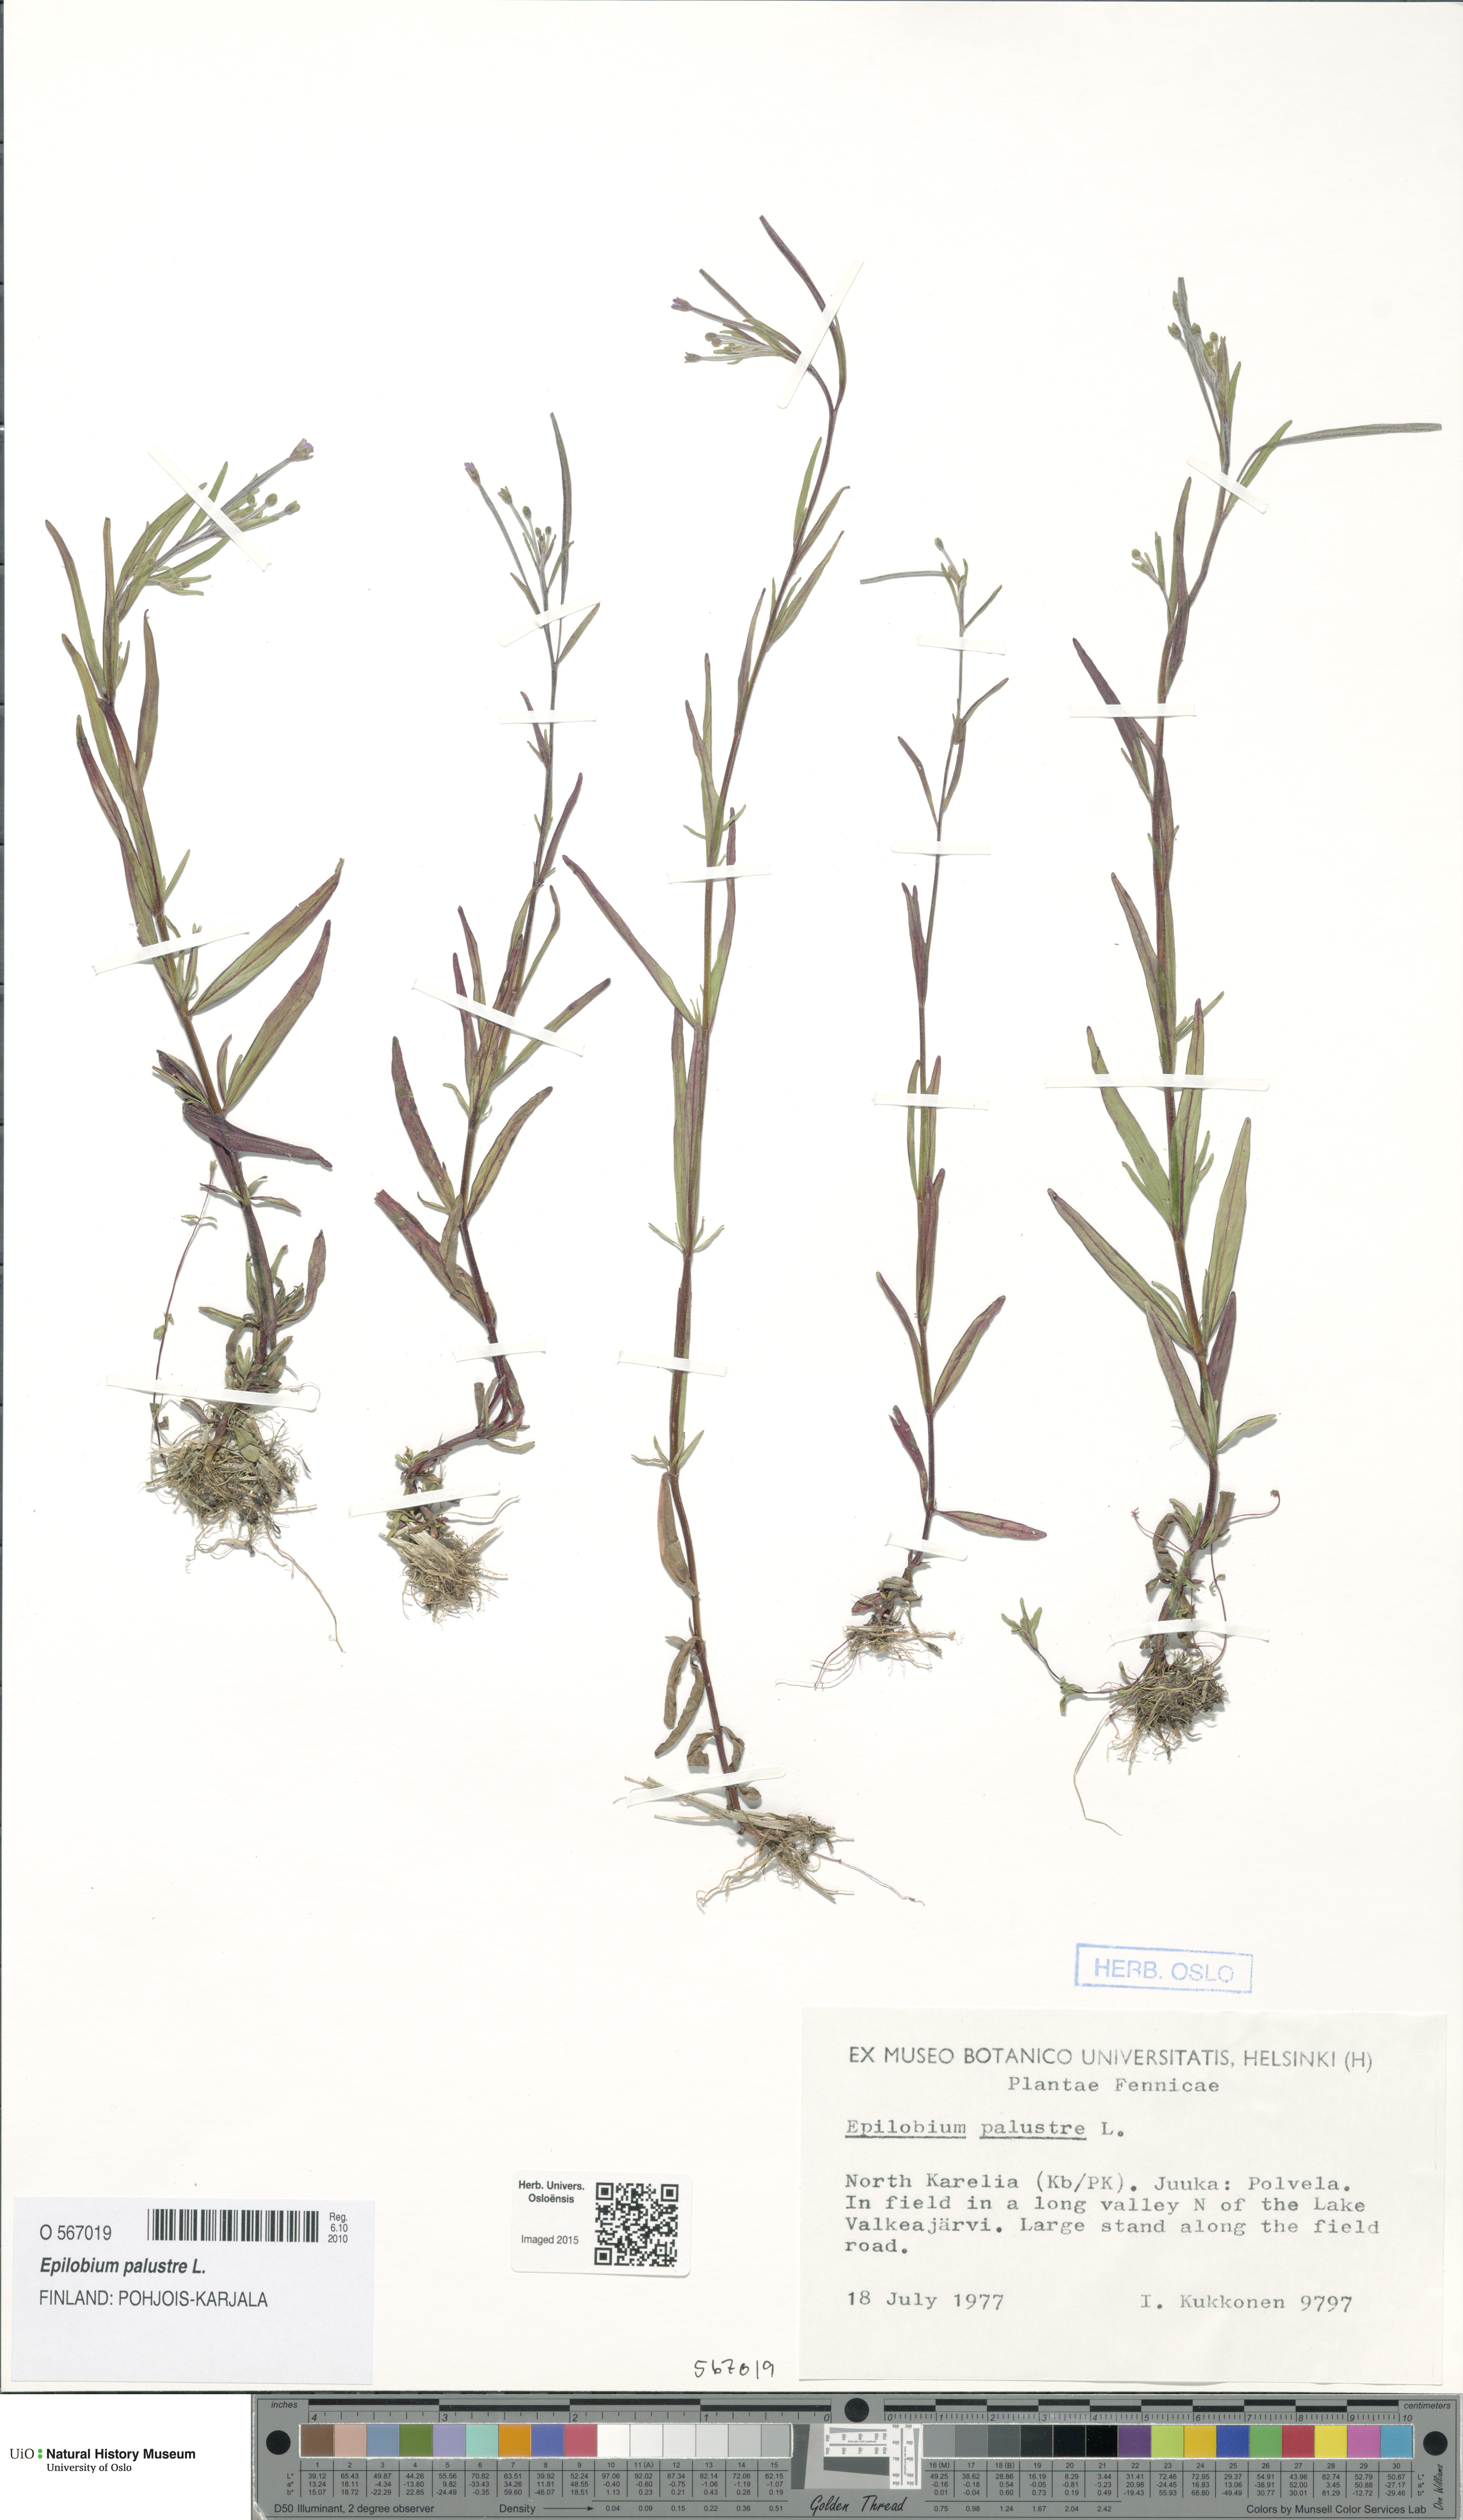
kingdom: Plantae
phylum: Tracheophyta
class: Magnoliopsida
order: Myrtales
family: Onagraceae
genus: Epilobium
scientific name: Epilobium palustre
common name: Marsh willowherb
